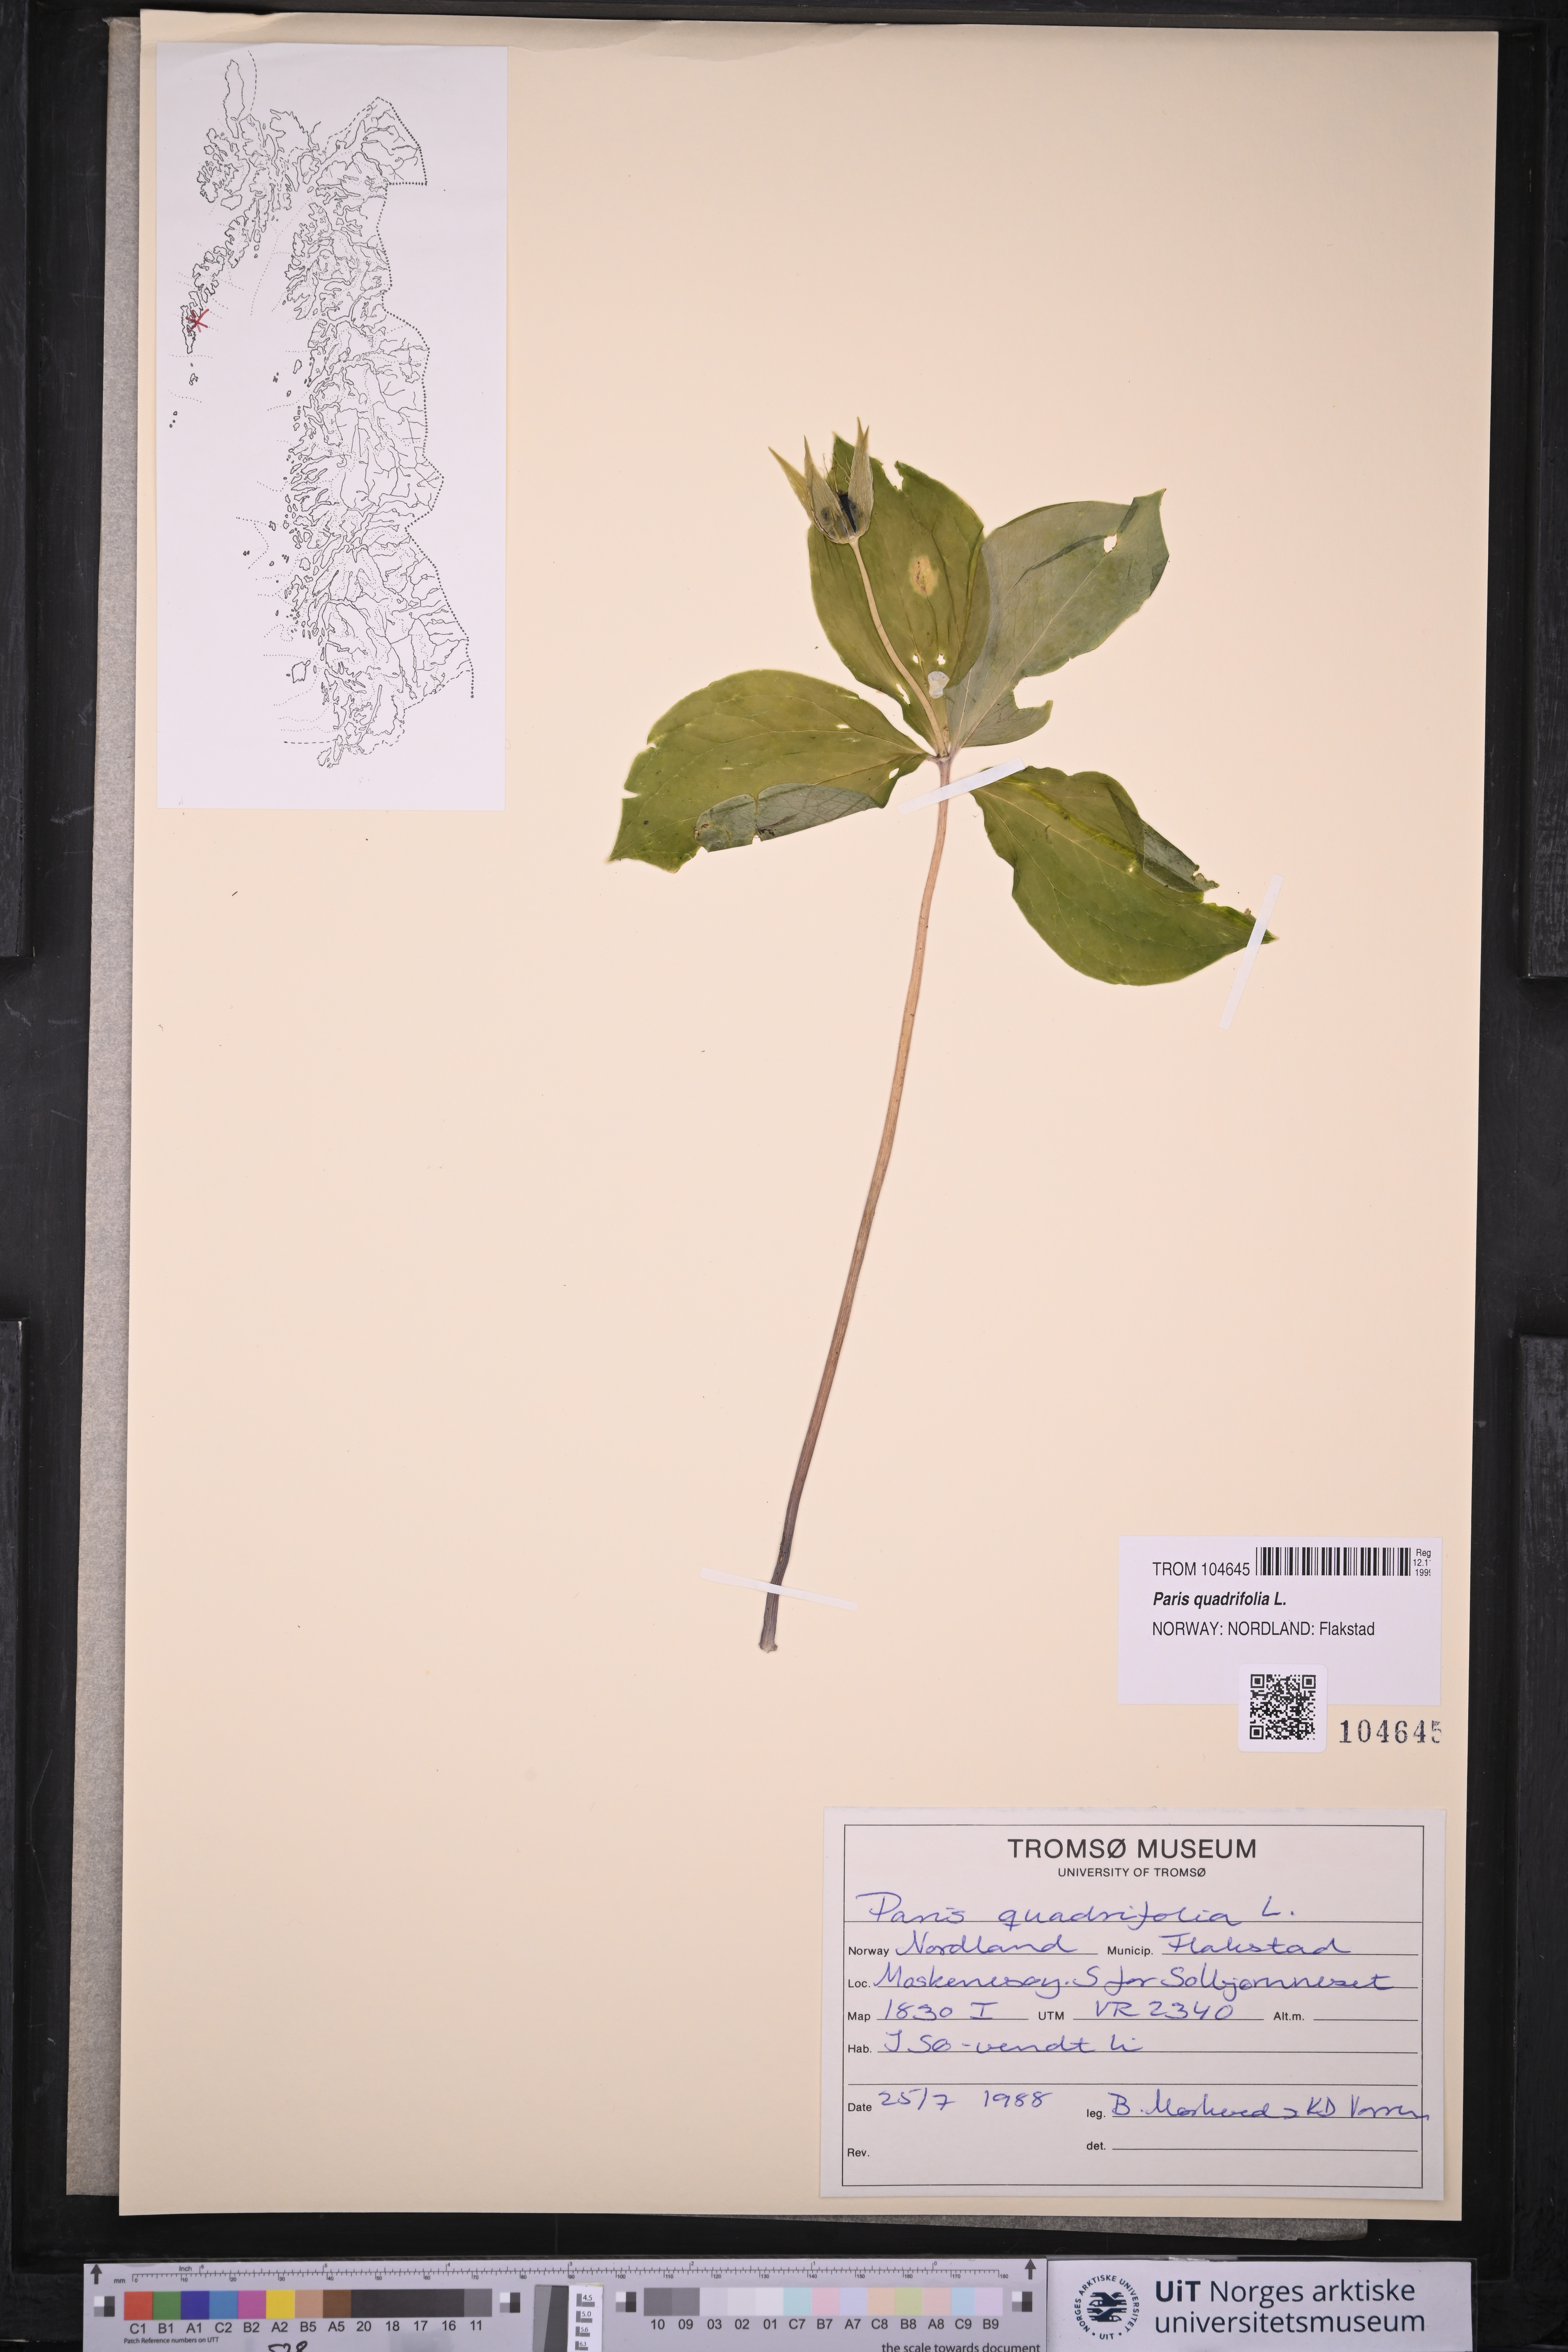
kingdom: Plantae
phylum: Tracheophyta
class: Liliopsida
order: Liliales
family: Melanthiaceae
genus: Paris
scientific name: Paris quadrifolia
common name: Herb-paris
